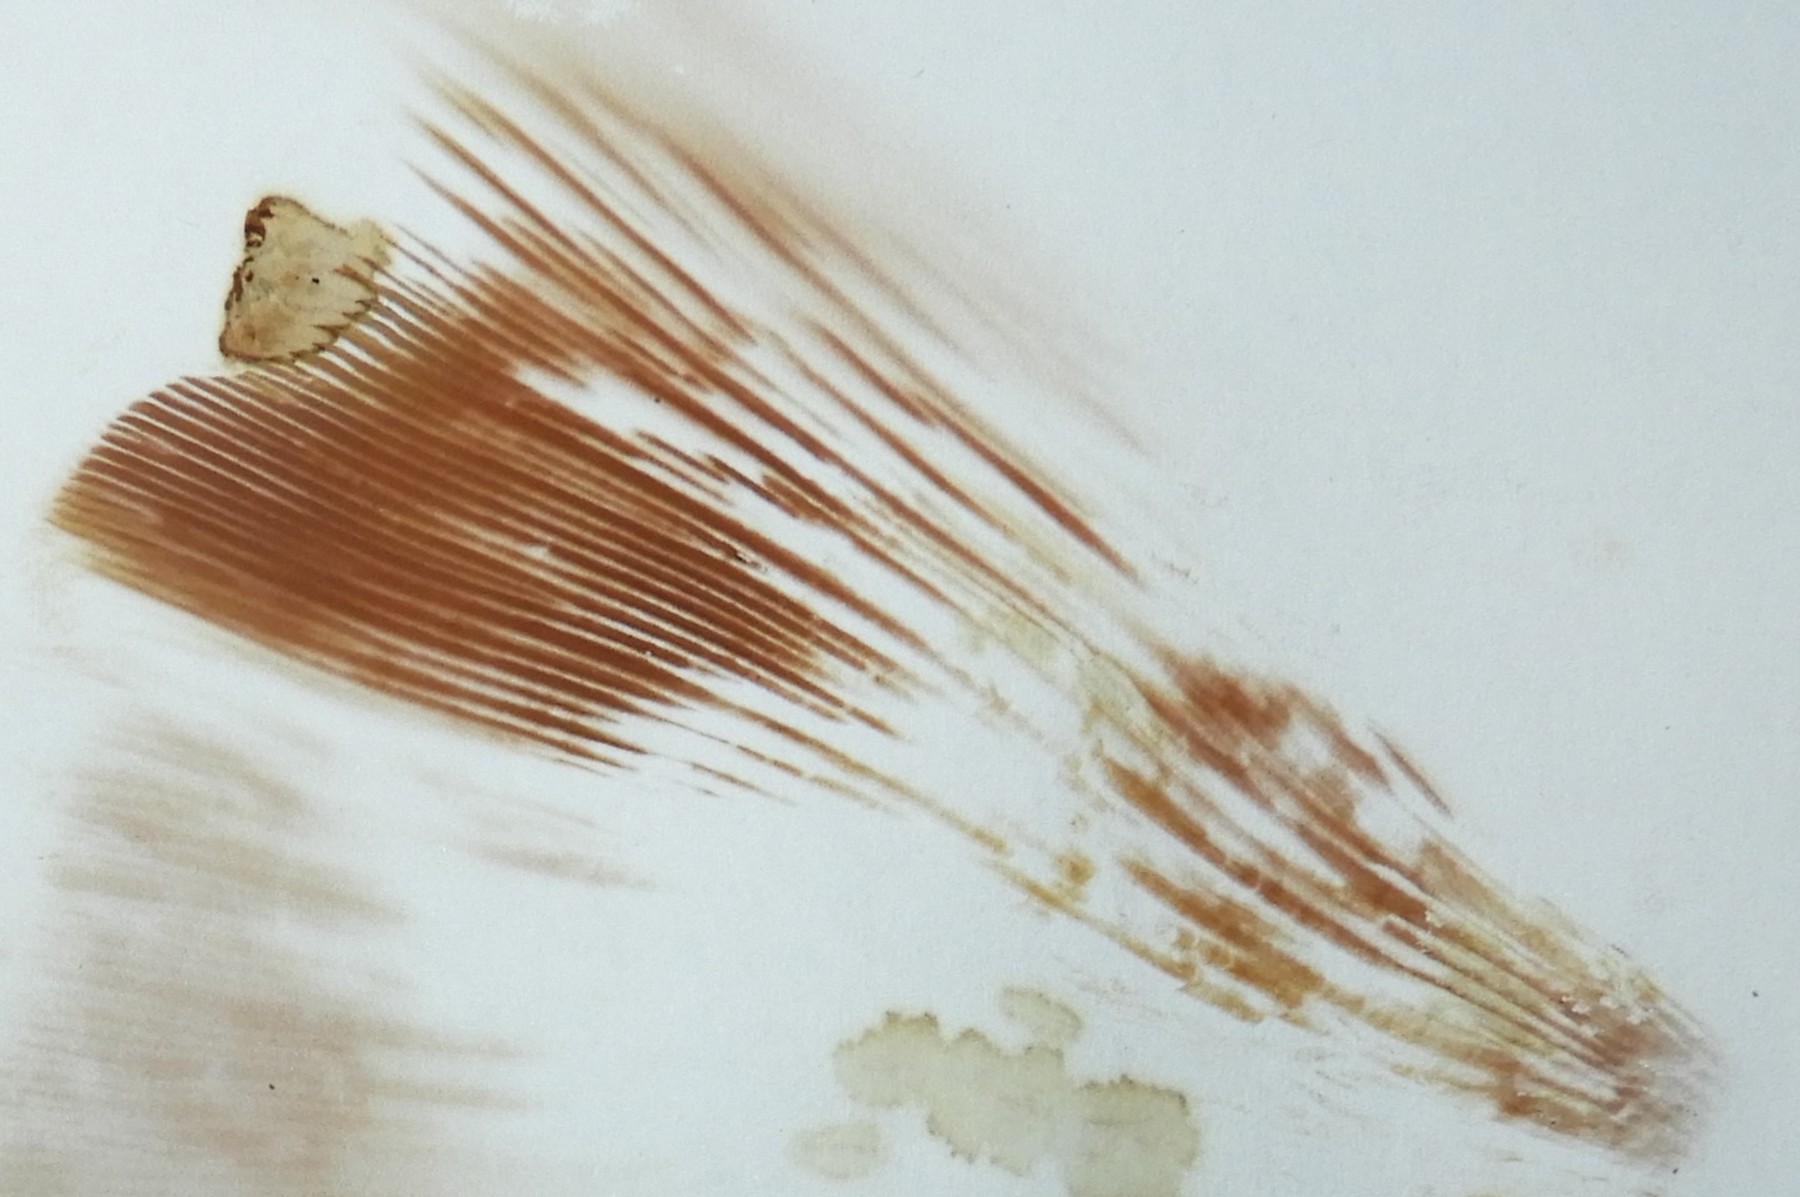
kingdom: Fungi
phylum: Basidiomycota
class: Agaricomycetes
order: Boletales
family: Paxillaceae
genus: Paxillus
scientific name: Paxillus obscurisporus
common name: mahognisporet netbladhat
